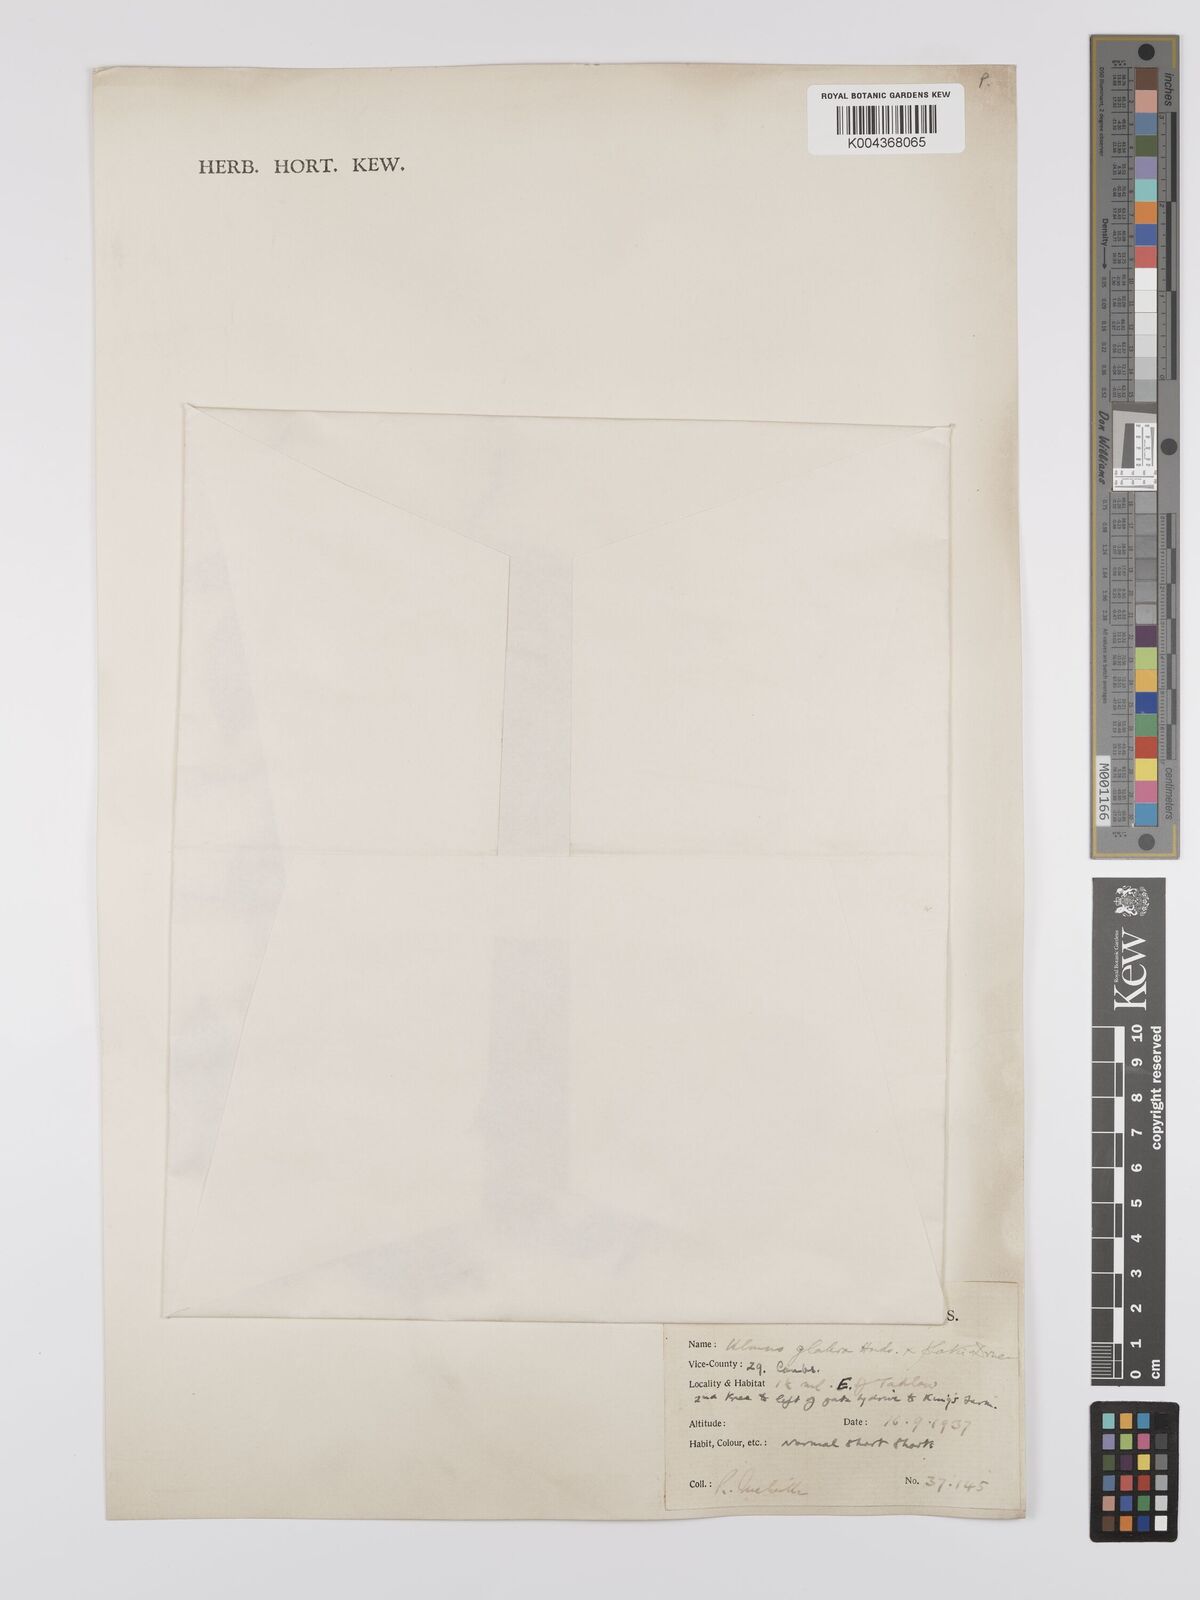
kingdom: Plantae
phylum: Tracheophyta
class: Magnoliopsida
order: Rosales
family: Ulmaceae
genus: Ulmus
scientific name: Ulmus
